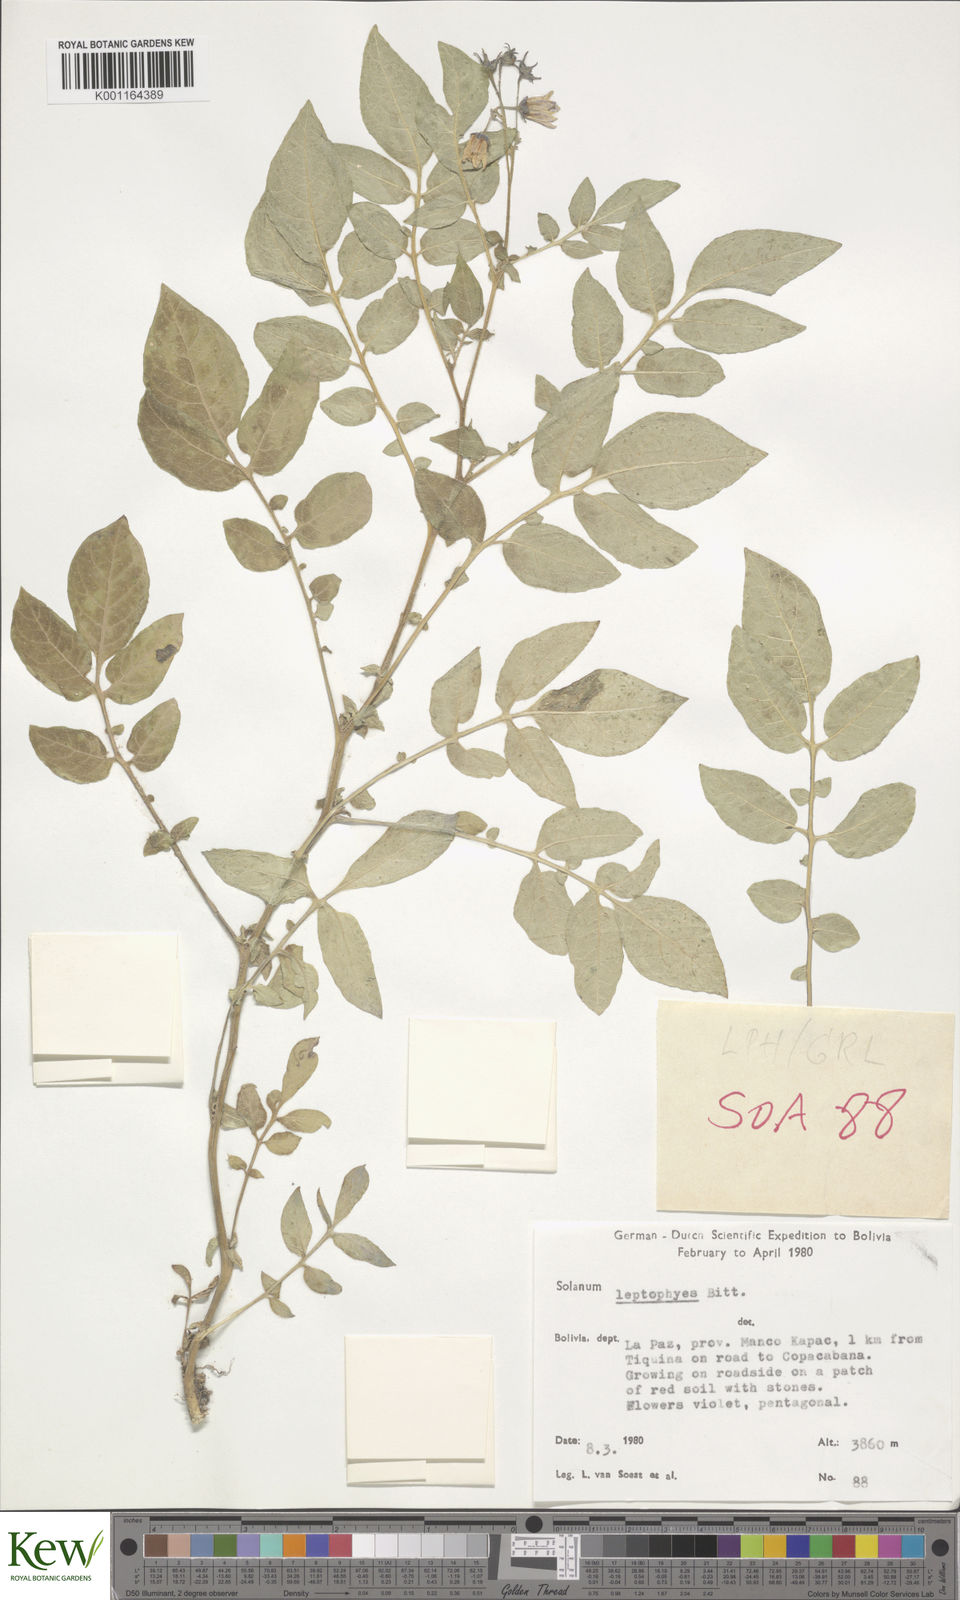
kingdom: Plantae
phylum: Tracheophyta
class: Magnoliopsida
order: Solanales
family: Solanaceae
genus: Solanum
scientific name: Solanum brevicaule
